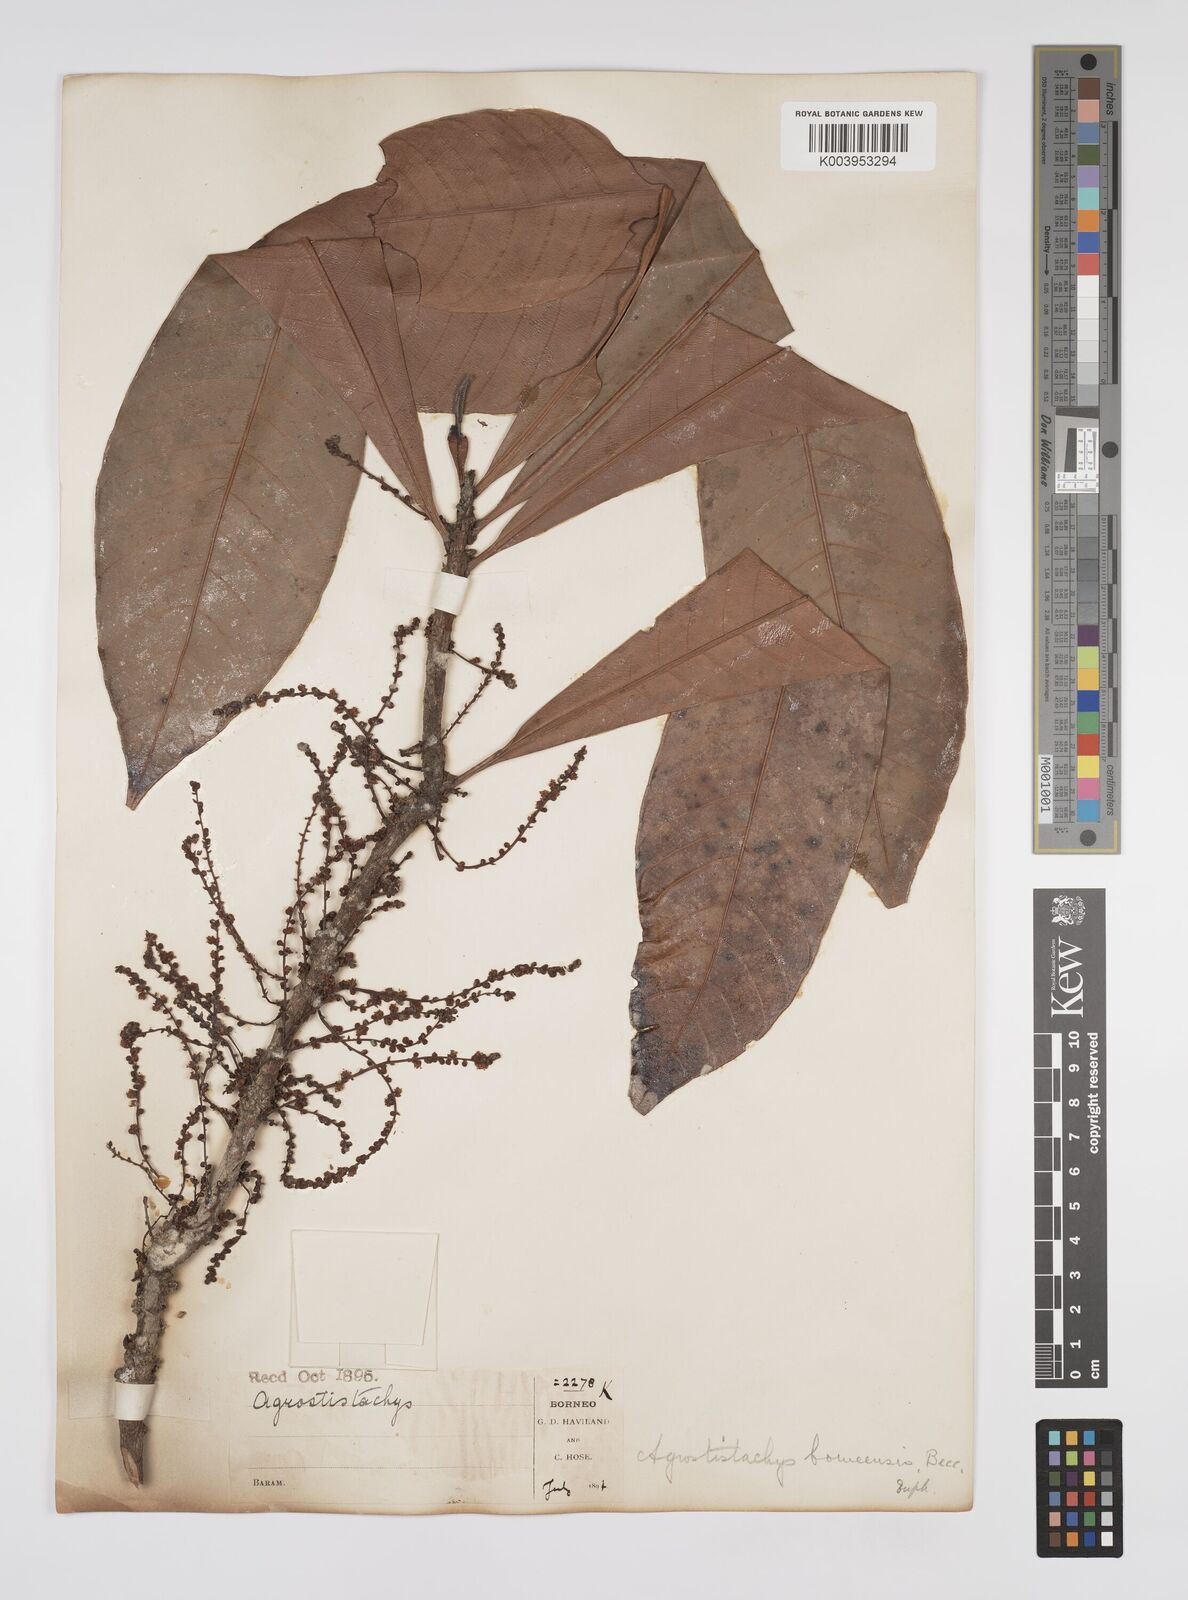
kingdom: Plantae
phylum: Tracheophyta
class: Magnoliopsida
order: Malpighiales
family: Euphorbiaceae
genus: Agrostistachys
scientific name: Agrostistachys
